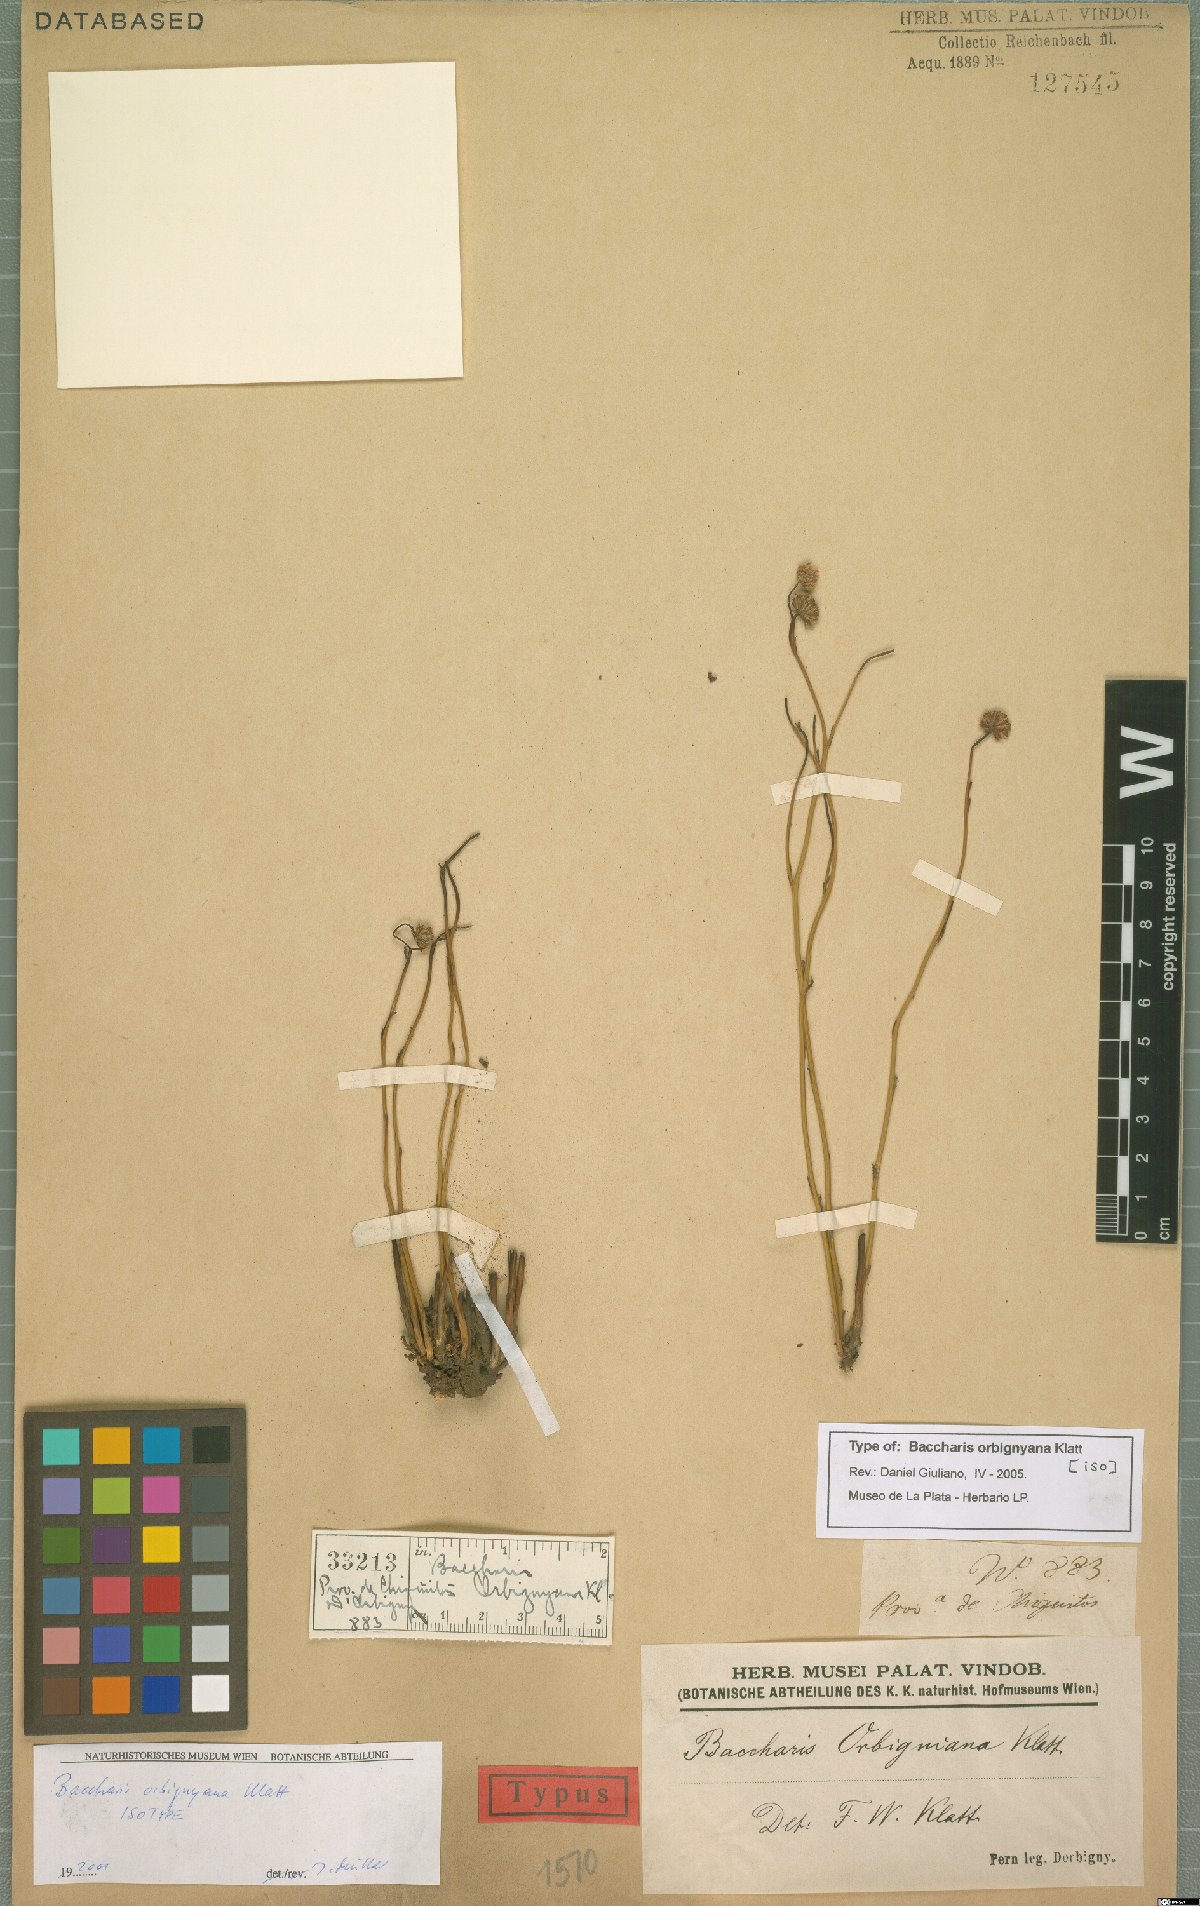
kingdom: Plantae
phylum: Tracheophyta
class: Magnoliopsida
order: Asterales
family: Asteraceae
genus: Baccharis
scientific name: Baccharis orbignyana
